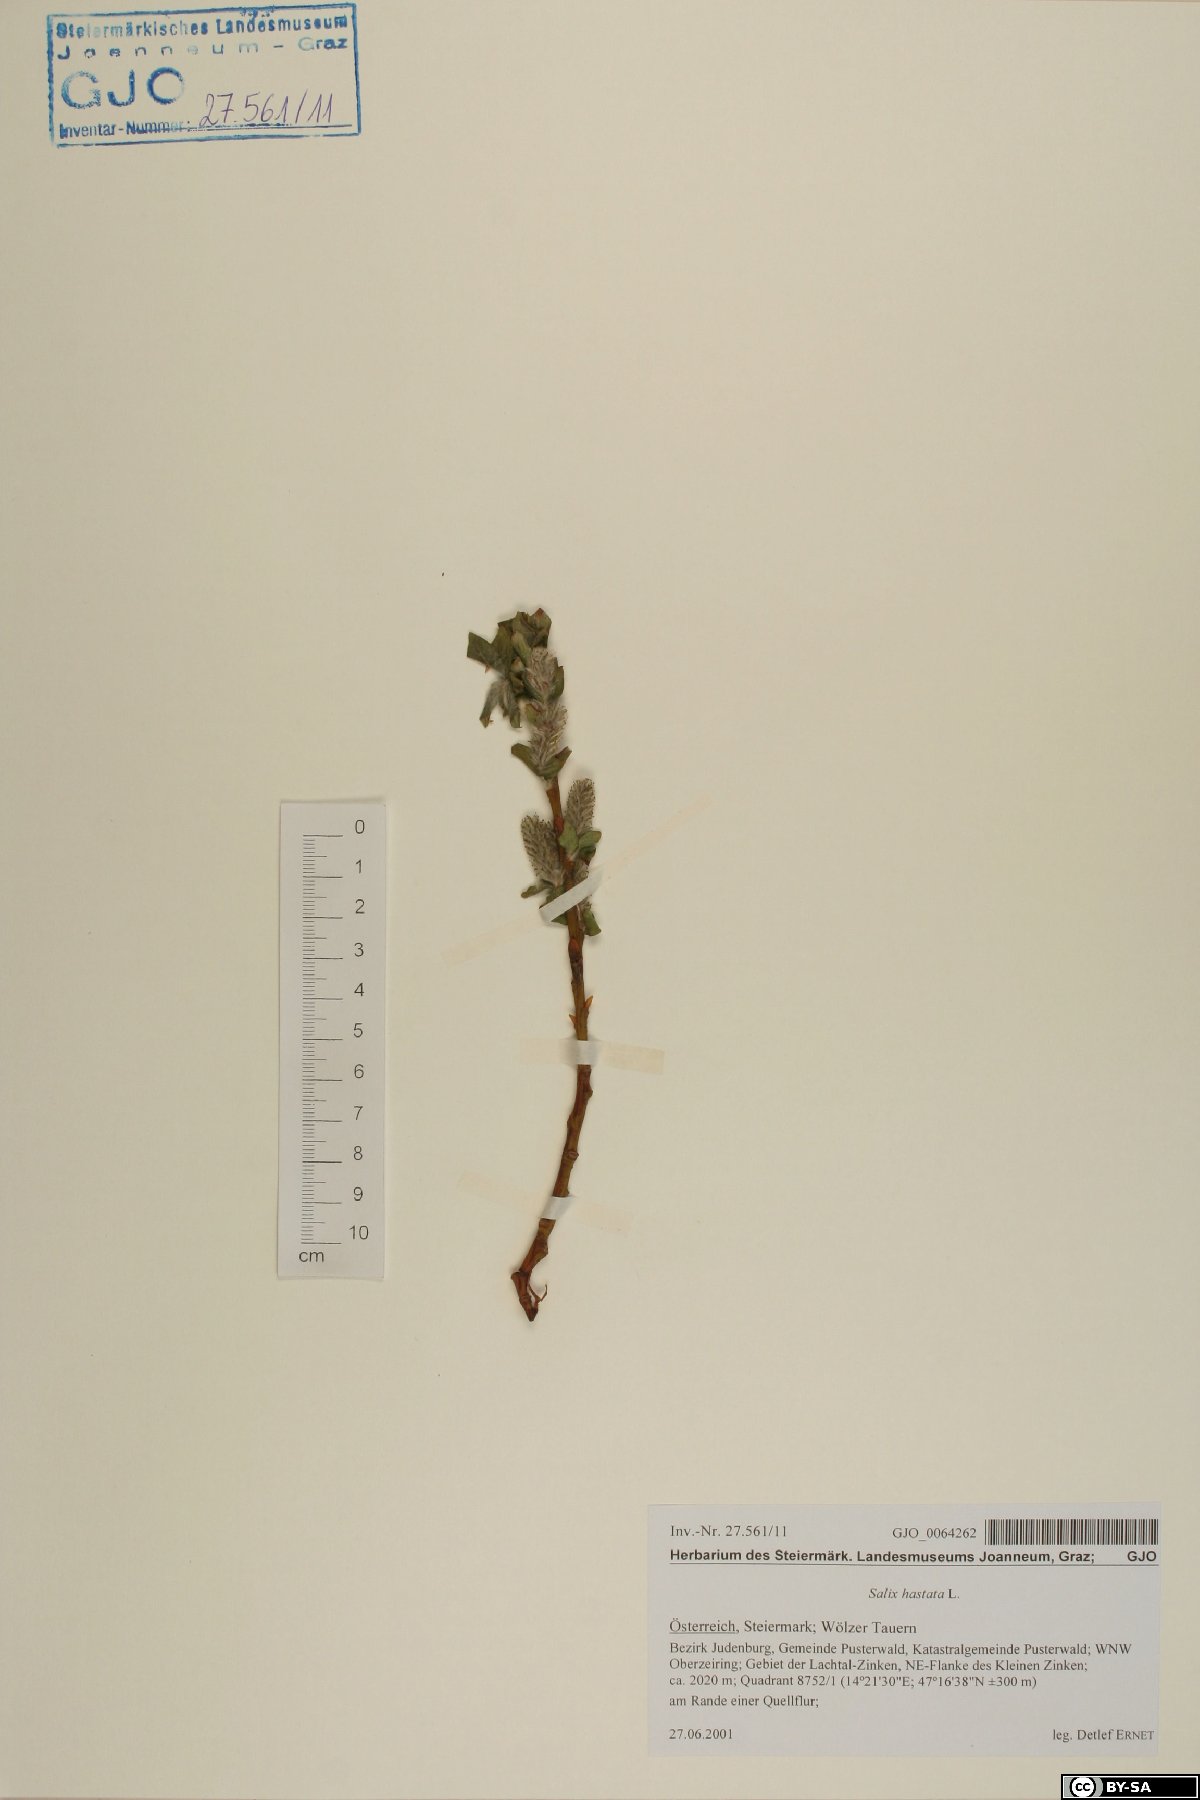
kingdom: Plantae
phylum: Tracheophyta
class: Magnoliopsida
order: Malpighiales
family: Salicaceae
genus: Salix
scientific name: Salix hastata
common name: Halberd willow
